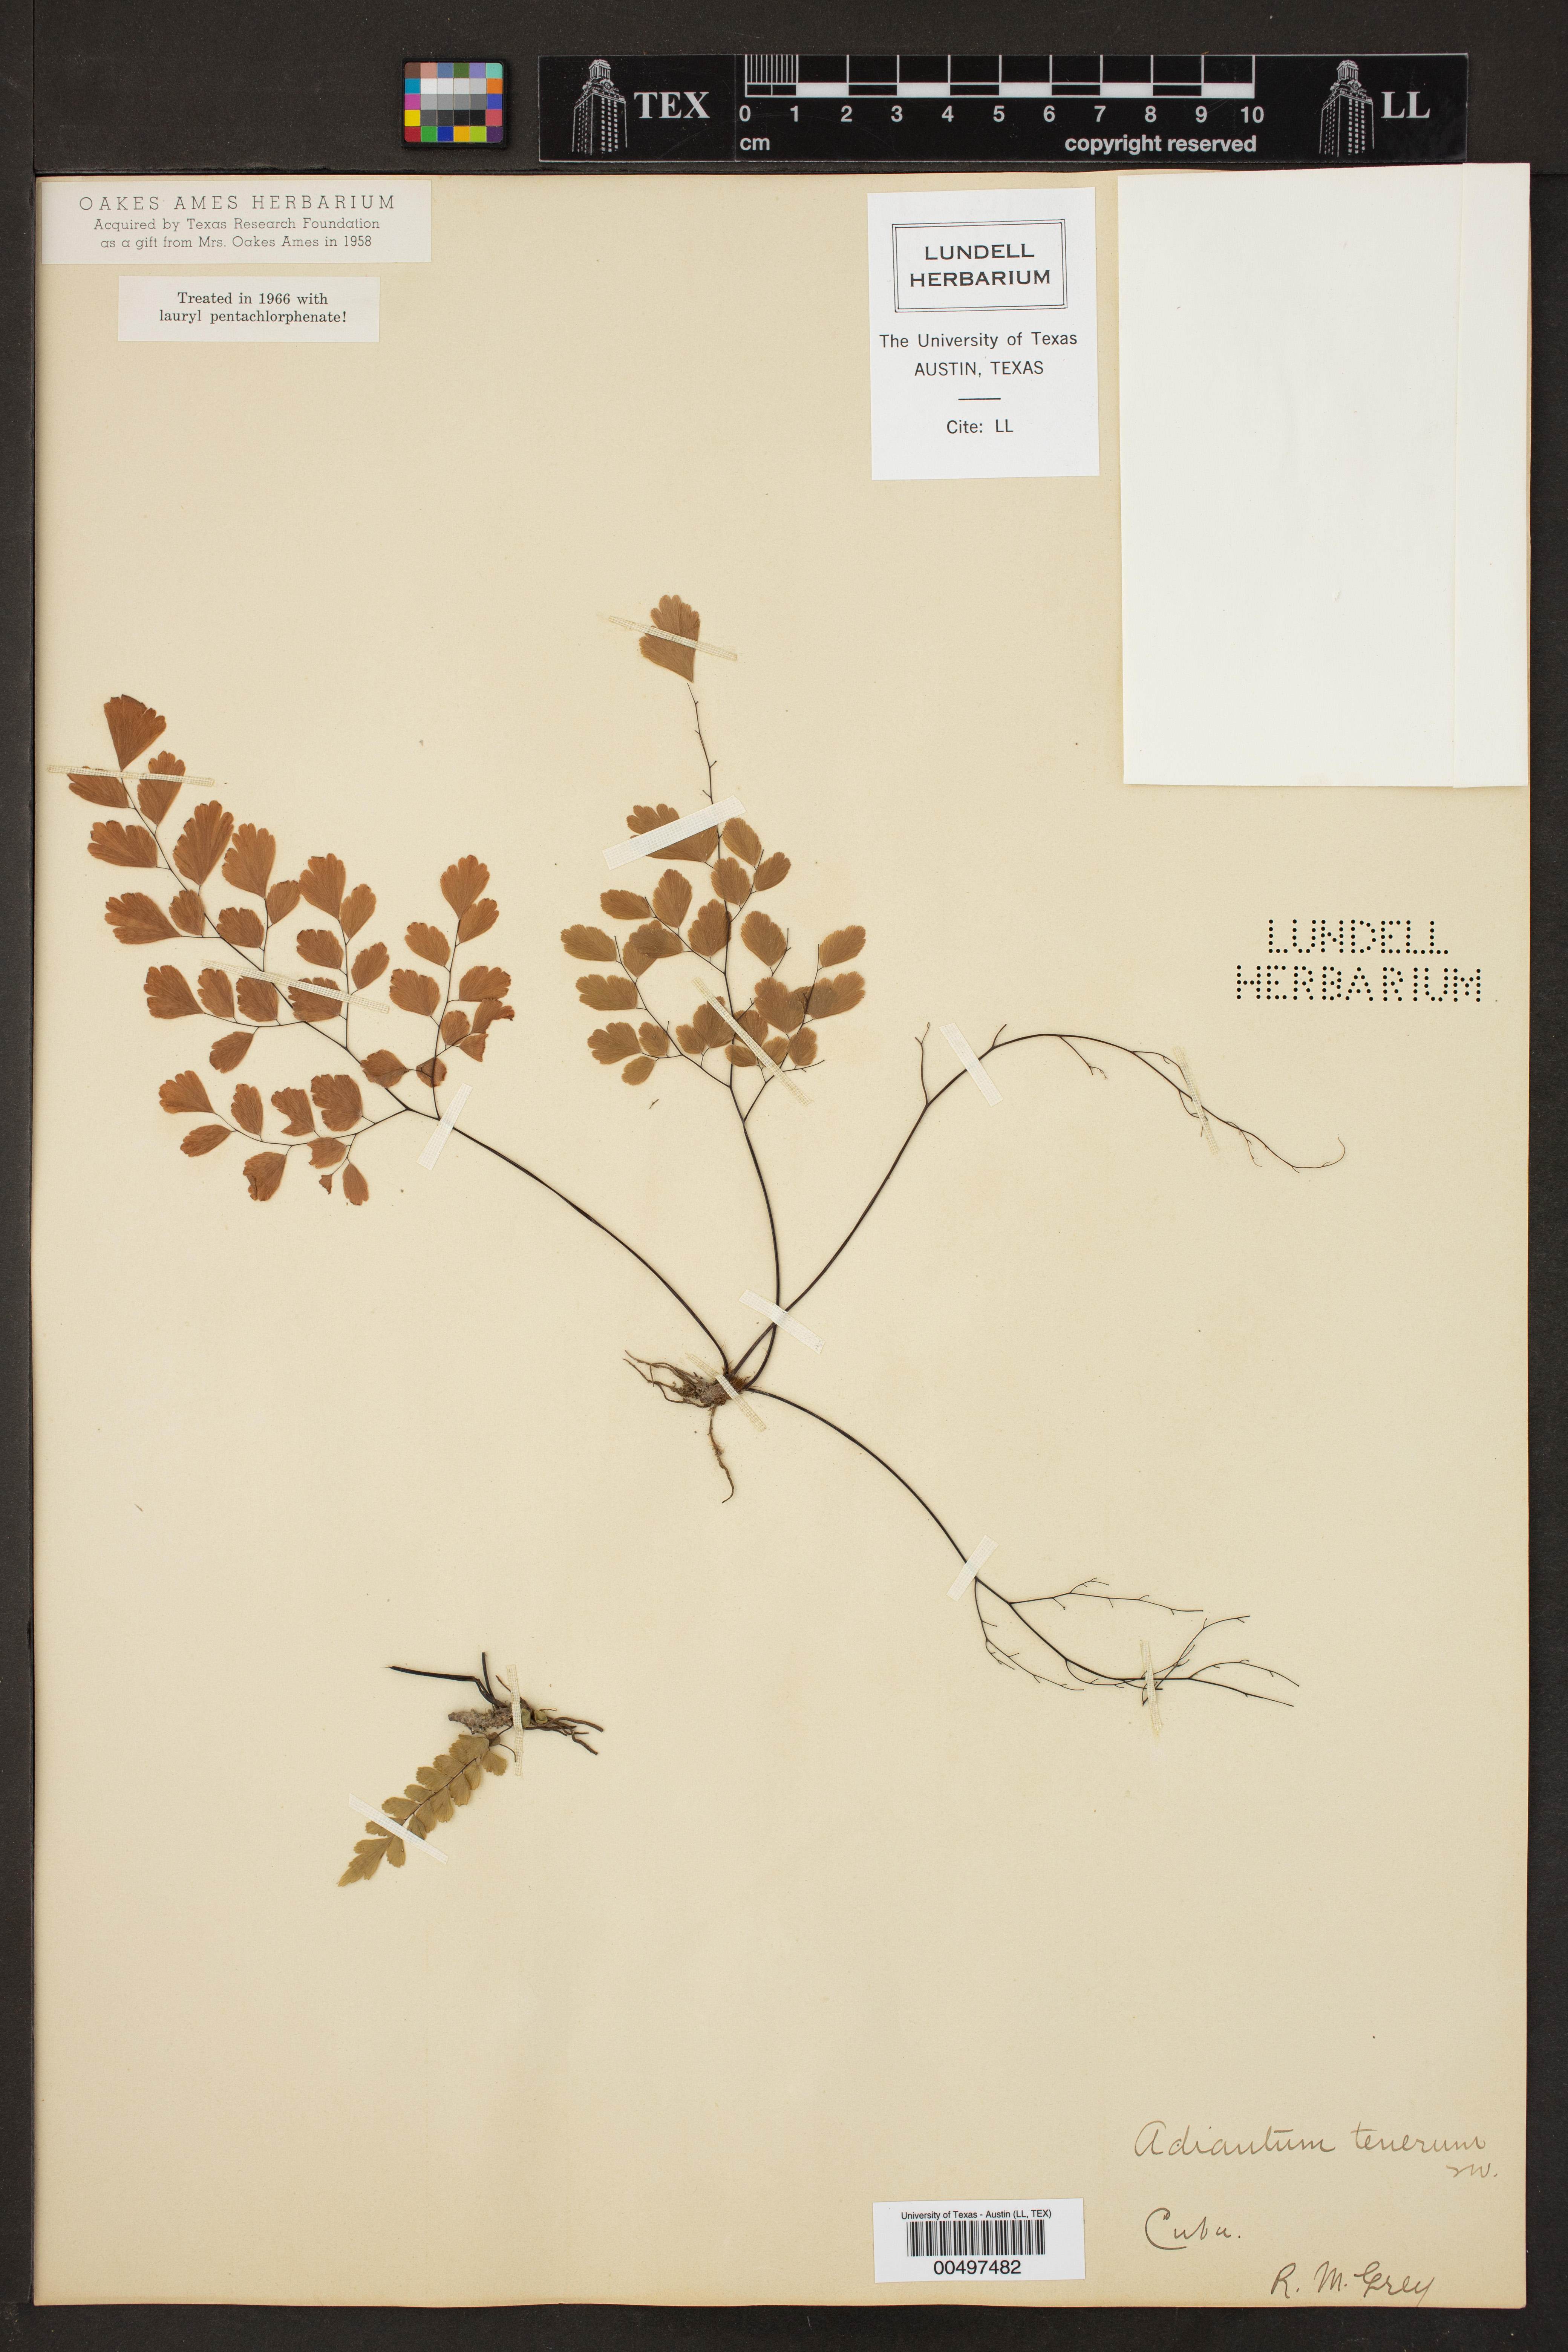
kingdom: Plantae
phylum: Tracheophyta
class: Polypodiopsida
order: Polypodiales
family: Pteridaceae
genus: Adiantum
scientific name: Adiantum tenerum
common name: Fan maidenhair
